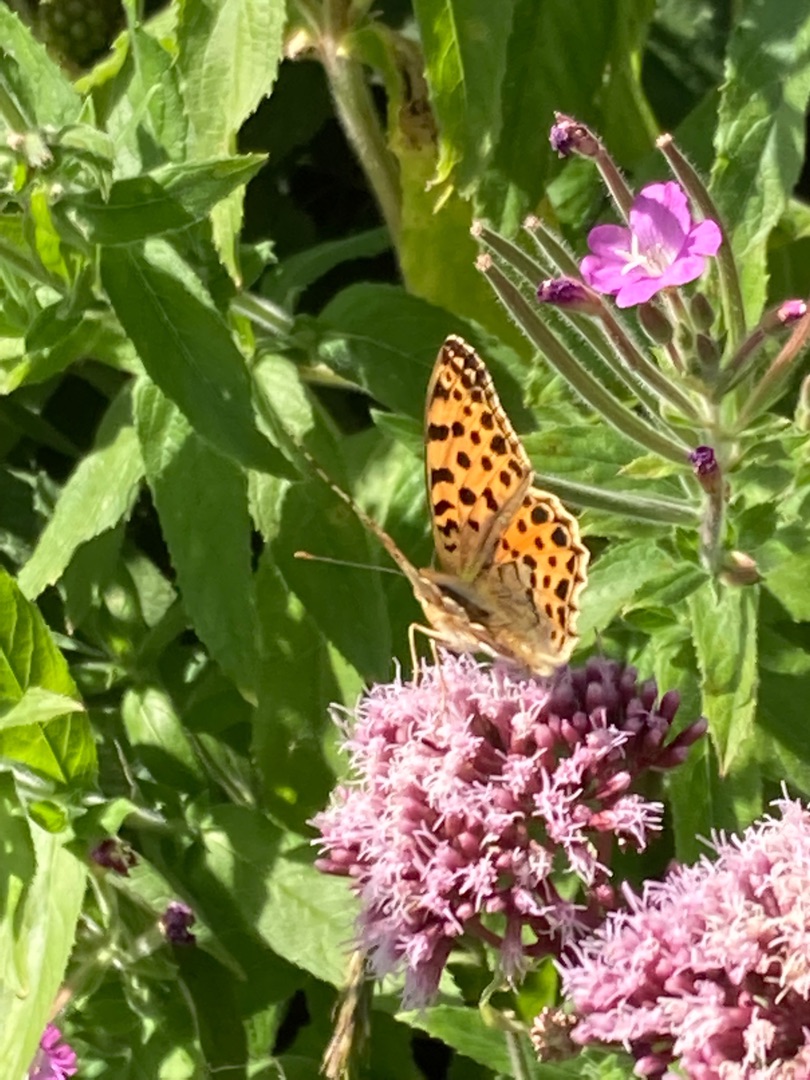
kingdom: Animalia
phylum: Arthropoda
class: Insecta
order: Lepidoptera
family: Nymphalidae
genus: Issoria
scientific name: Issoria lathonia
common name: Storplettet perlemorsommerfugl
